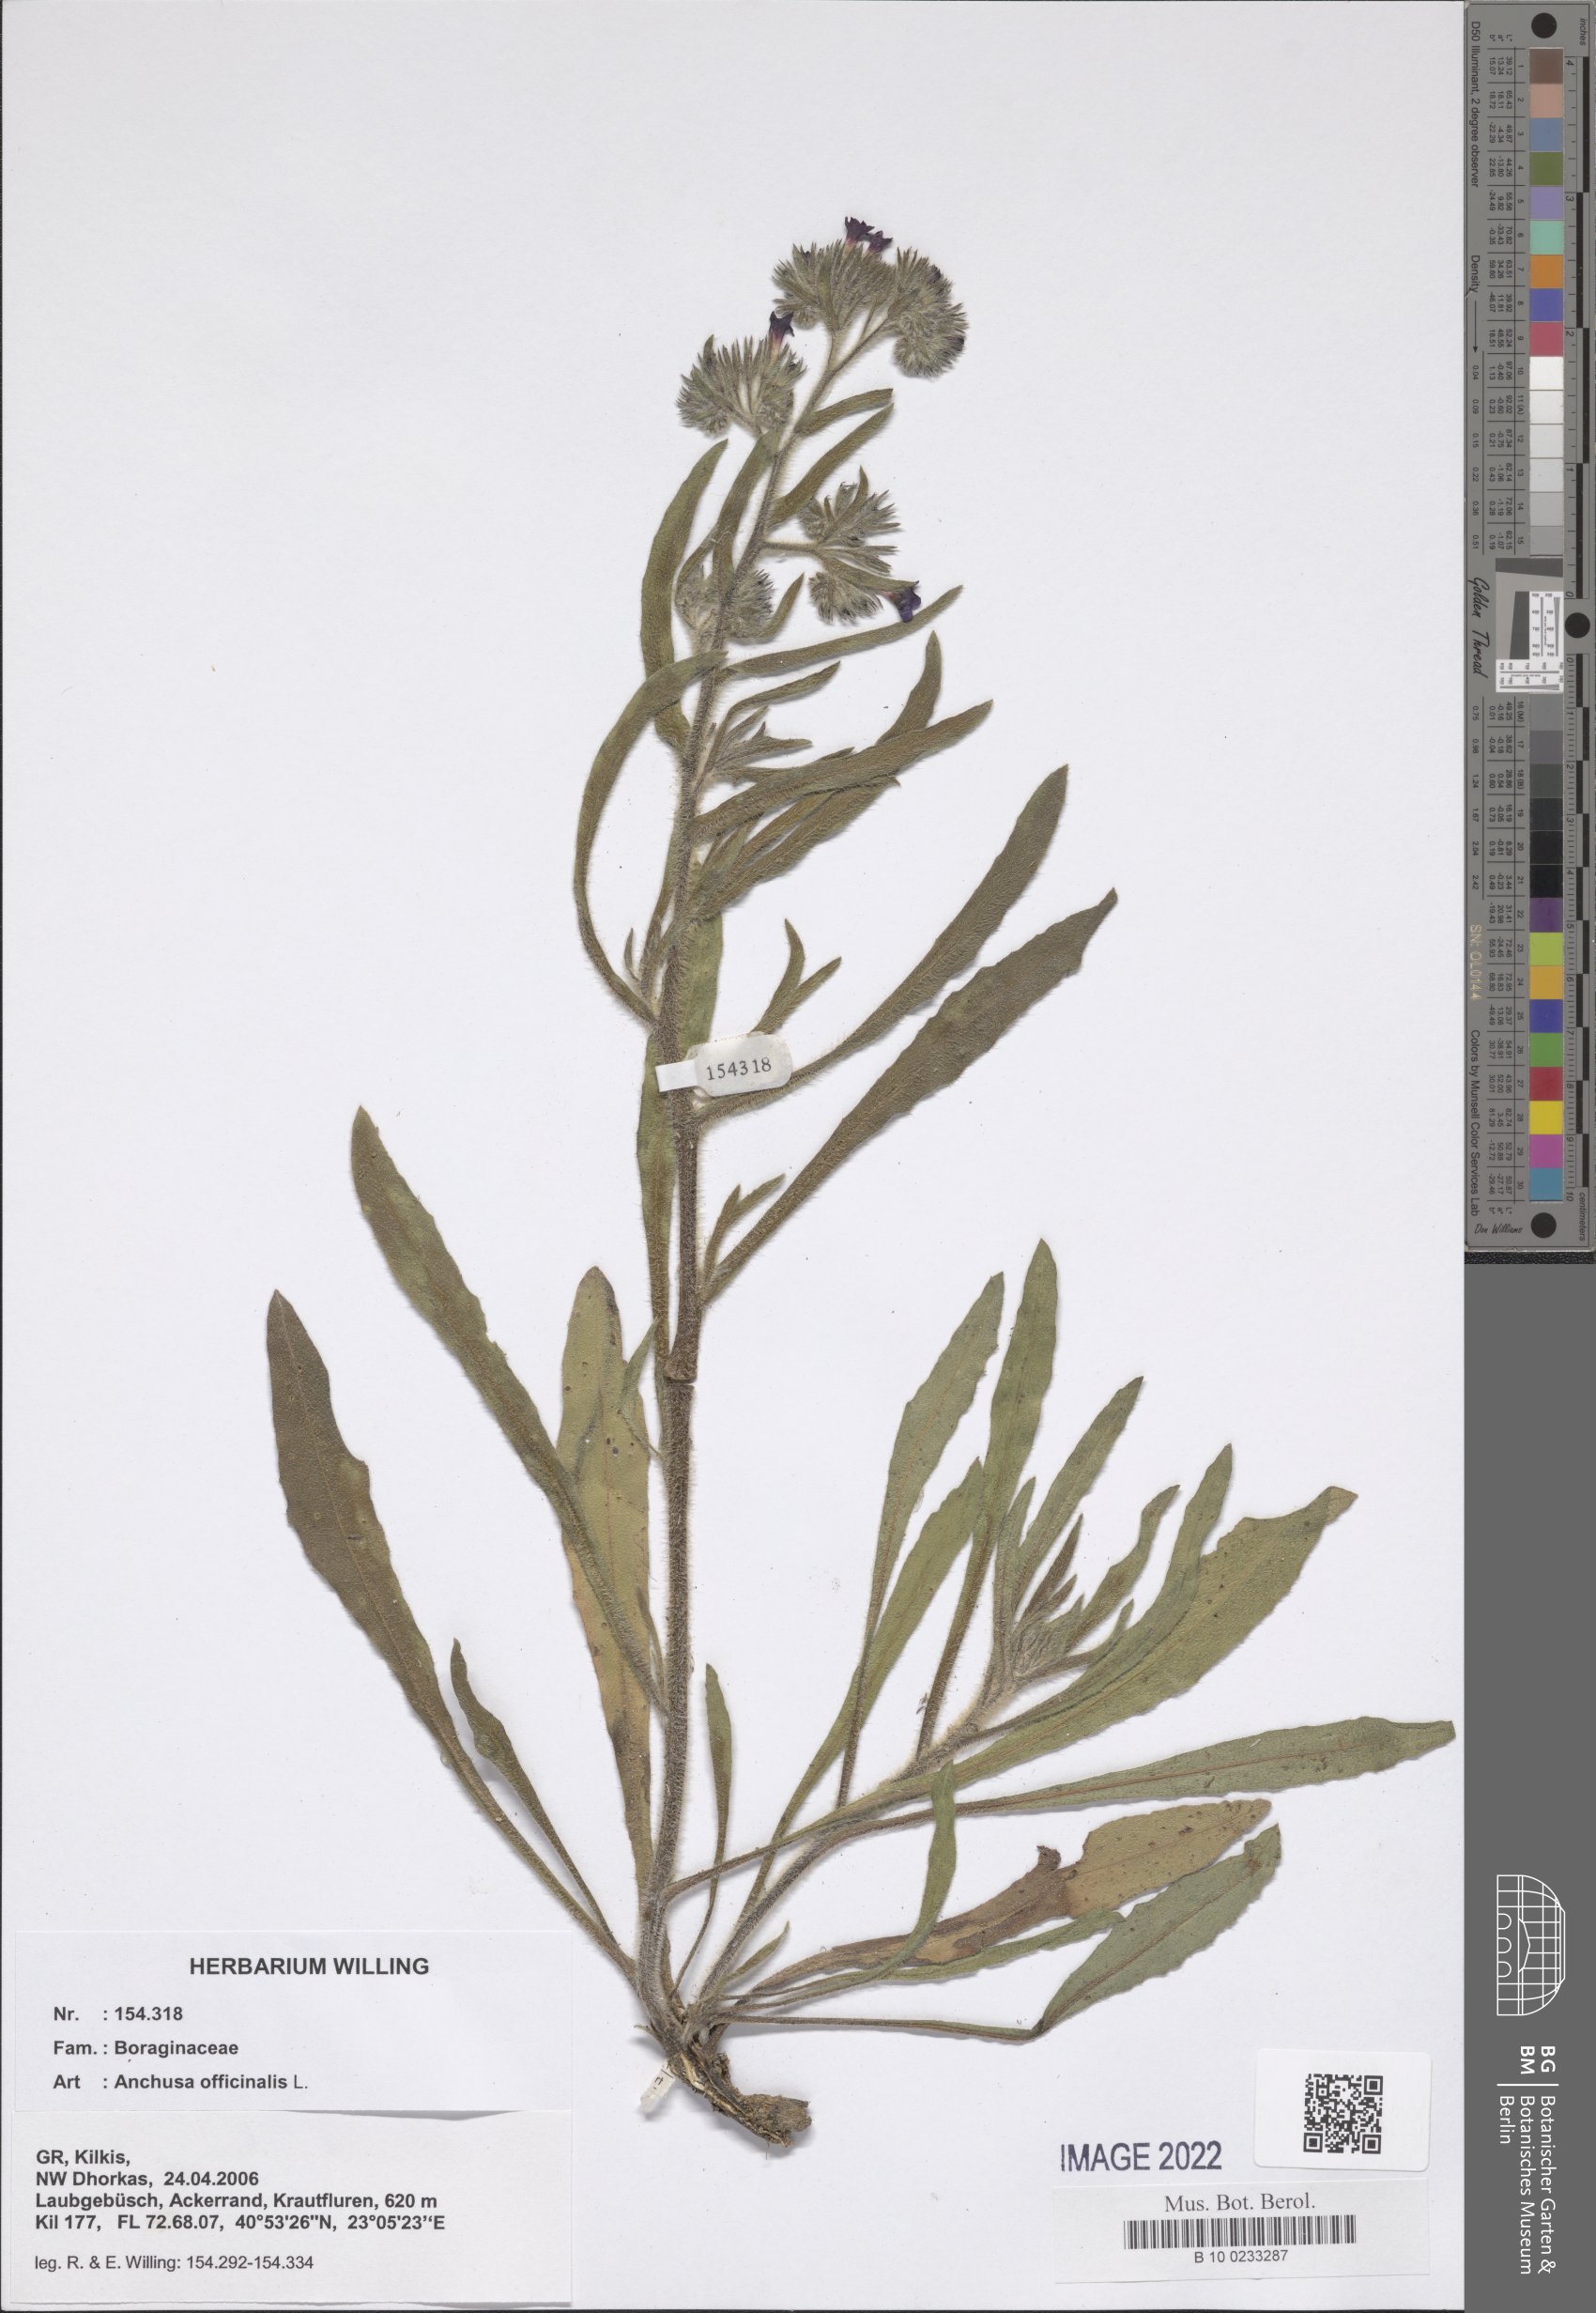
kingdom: Plantae
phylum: Tracheophyta
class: Magnoliopsida
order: Boraginales
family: Boraginaceae
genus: Anchusa
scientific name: Anchusa officinalis
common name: Alkanet
